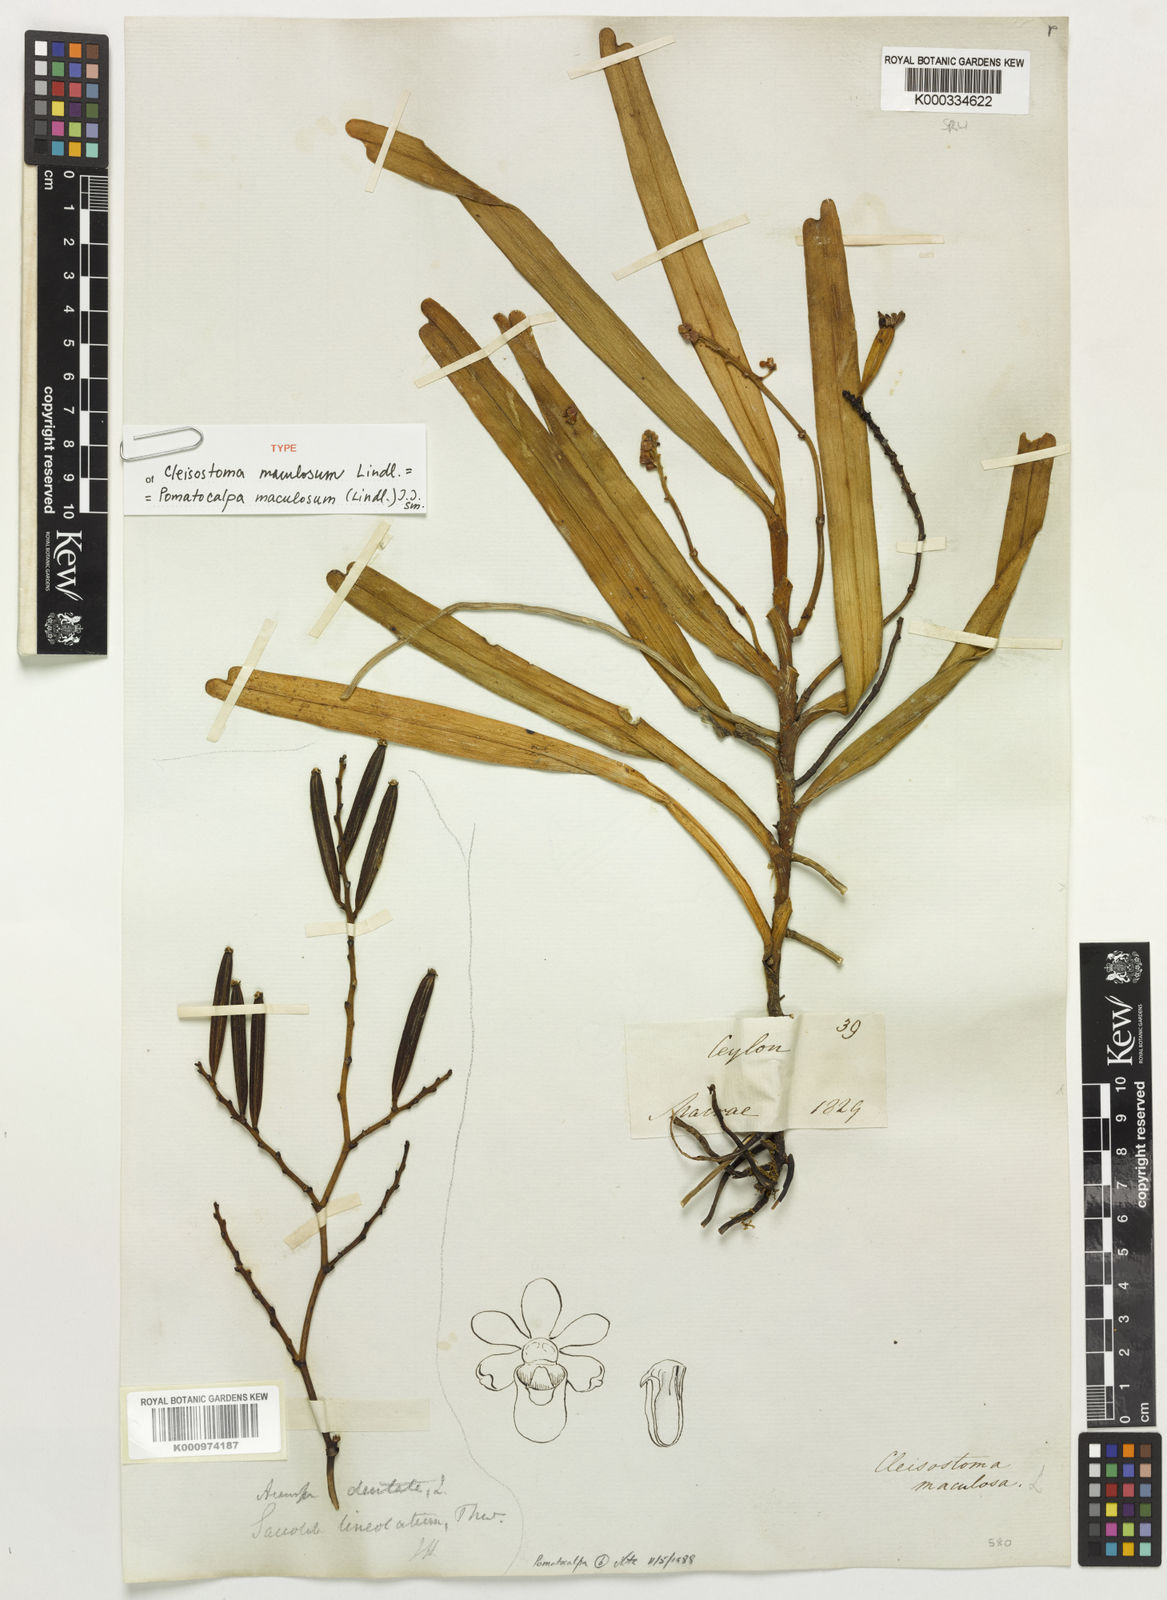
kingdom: Plantae
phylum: Tracheophyta
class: Liliopsida
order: Asparagales
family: Orchidaceae
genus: Pomatocalpa
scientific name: Pomatocalpa maculosum
